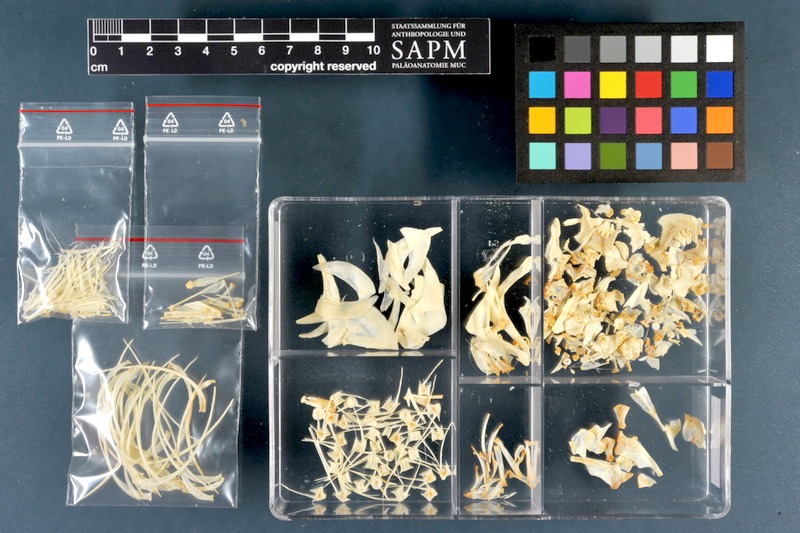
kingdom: Animalia
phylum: Chordata
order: Cypriniformes
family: Cyprinidae
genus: Rutilus
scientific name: Rutilus rutilus
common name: Roach
